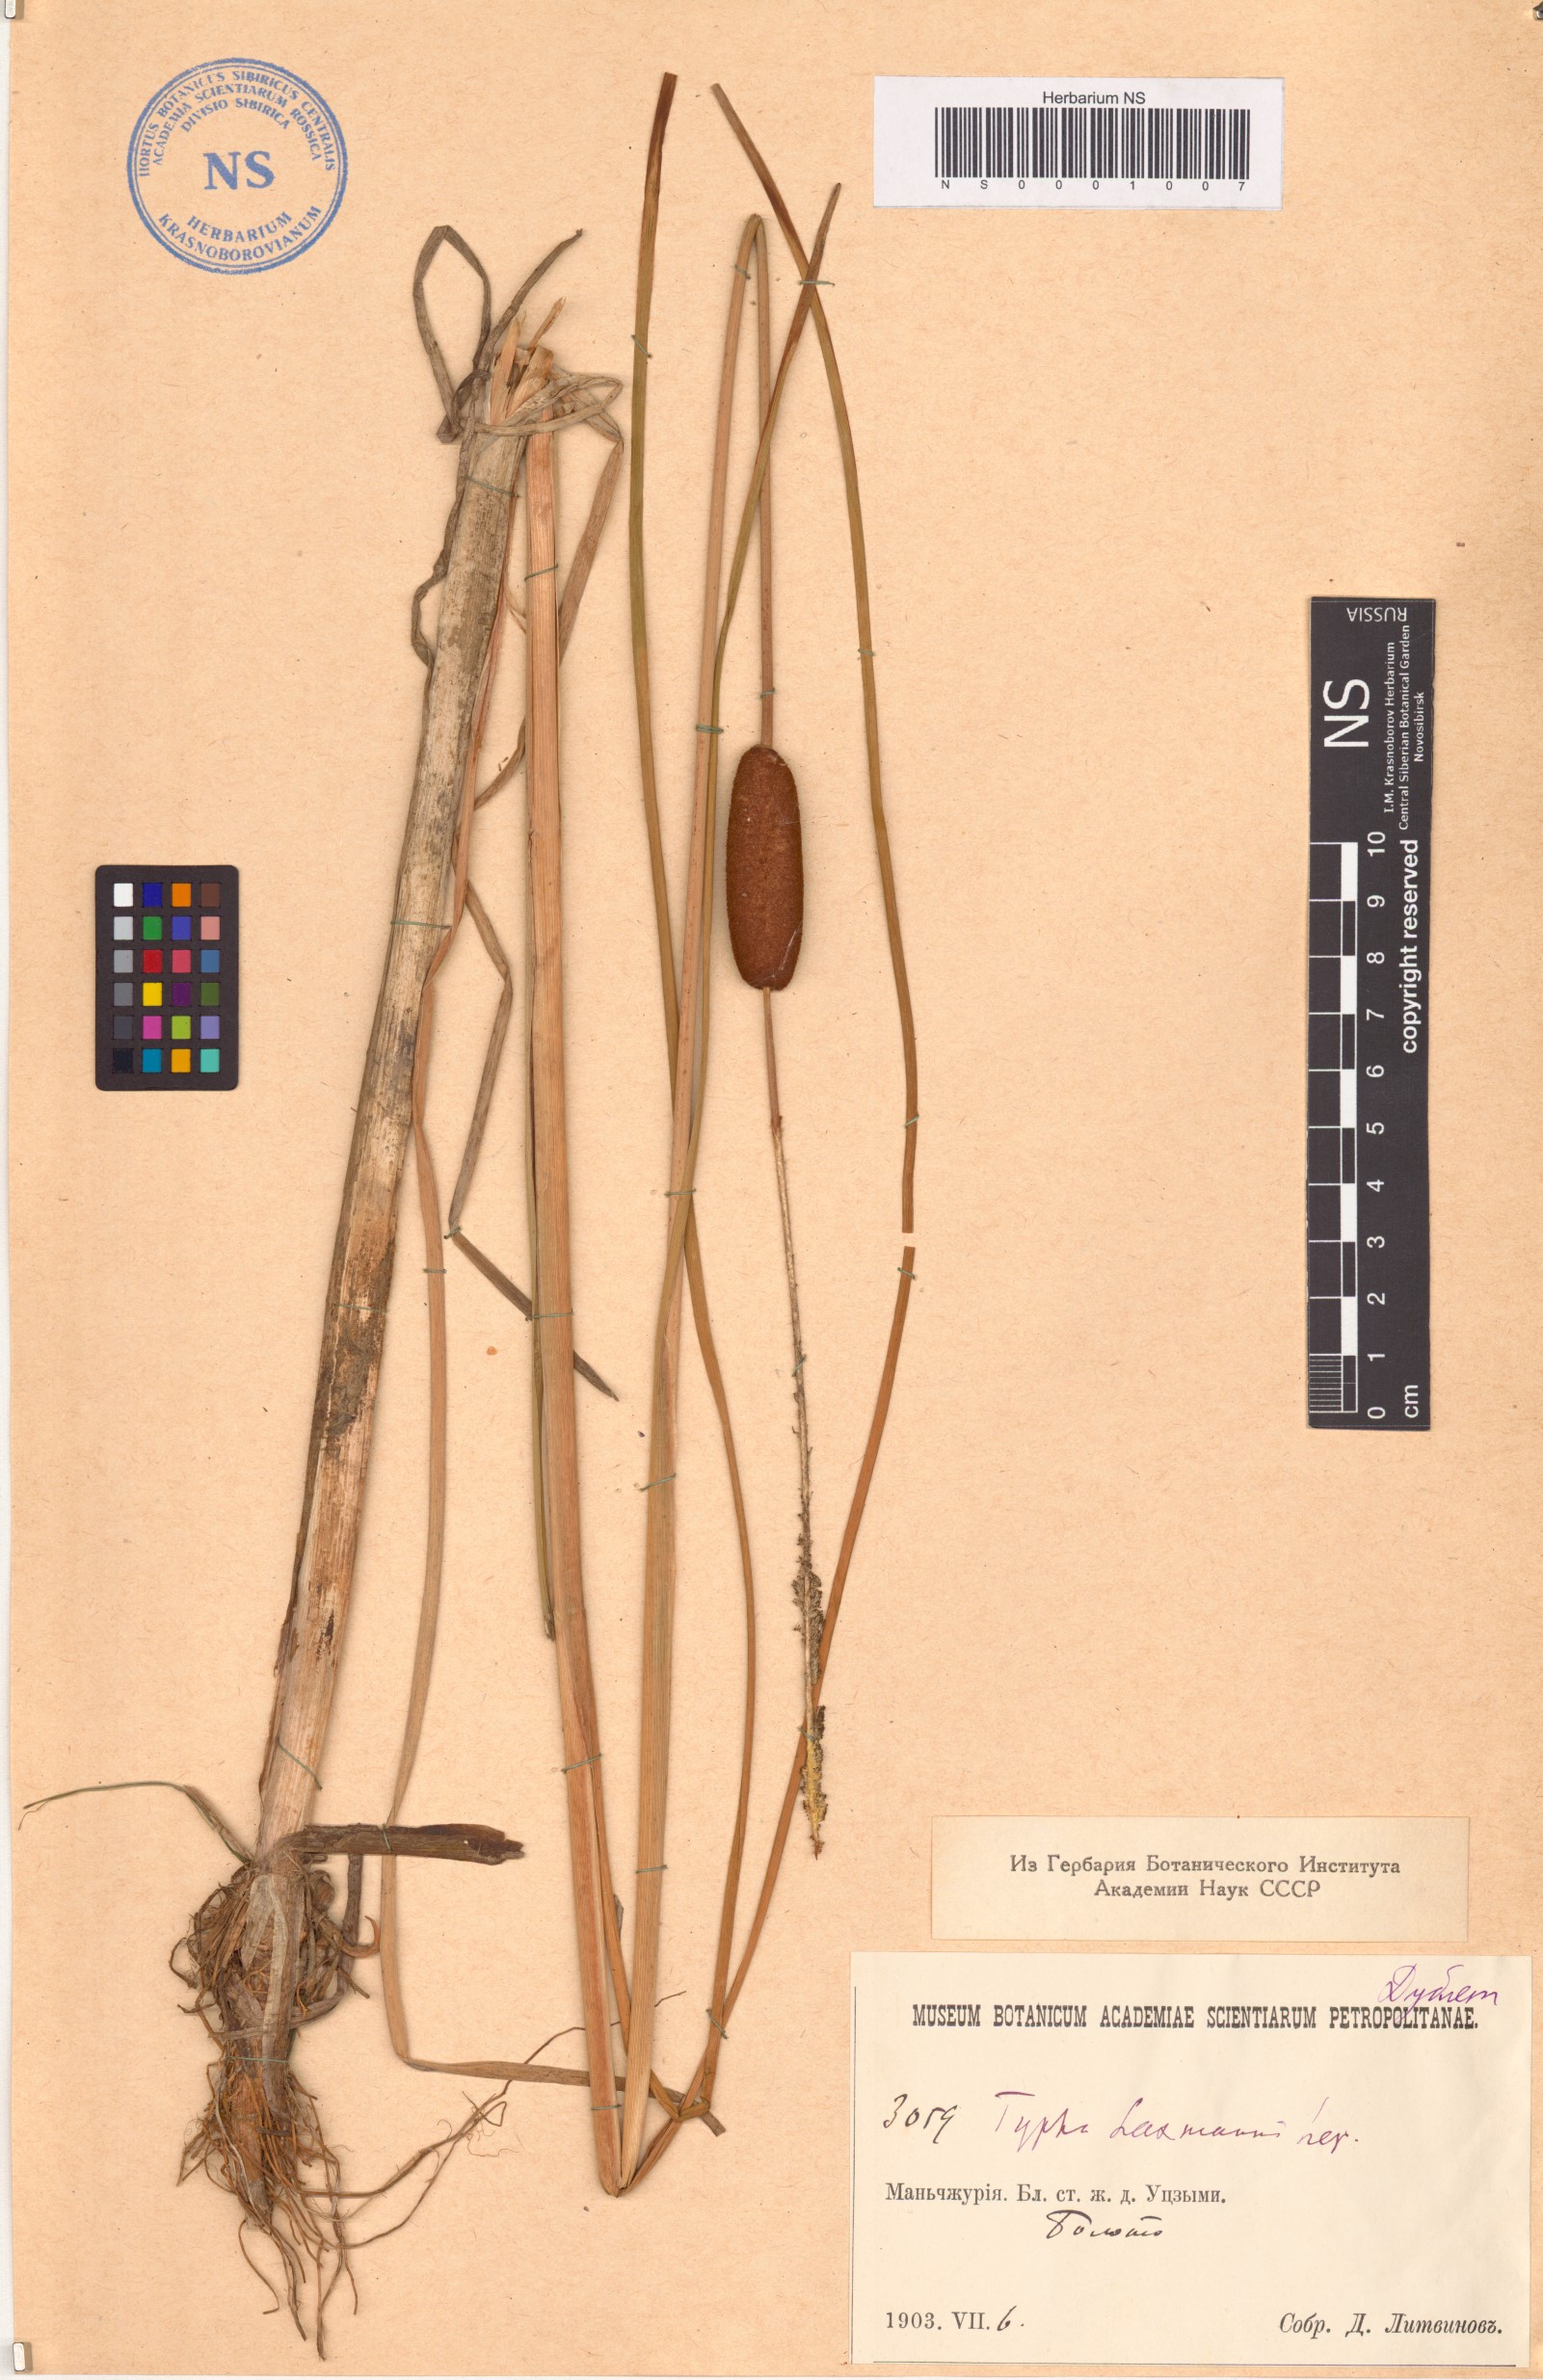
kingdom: Plantae
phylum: Tracheophyta
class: Liliopsida
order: Poales
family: Typhaceae
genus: Typha
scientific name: Typha laxmannii
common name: Laxman’s bulrush
